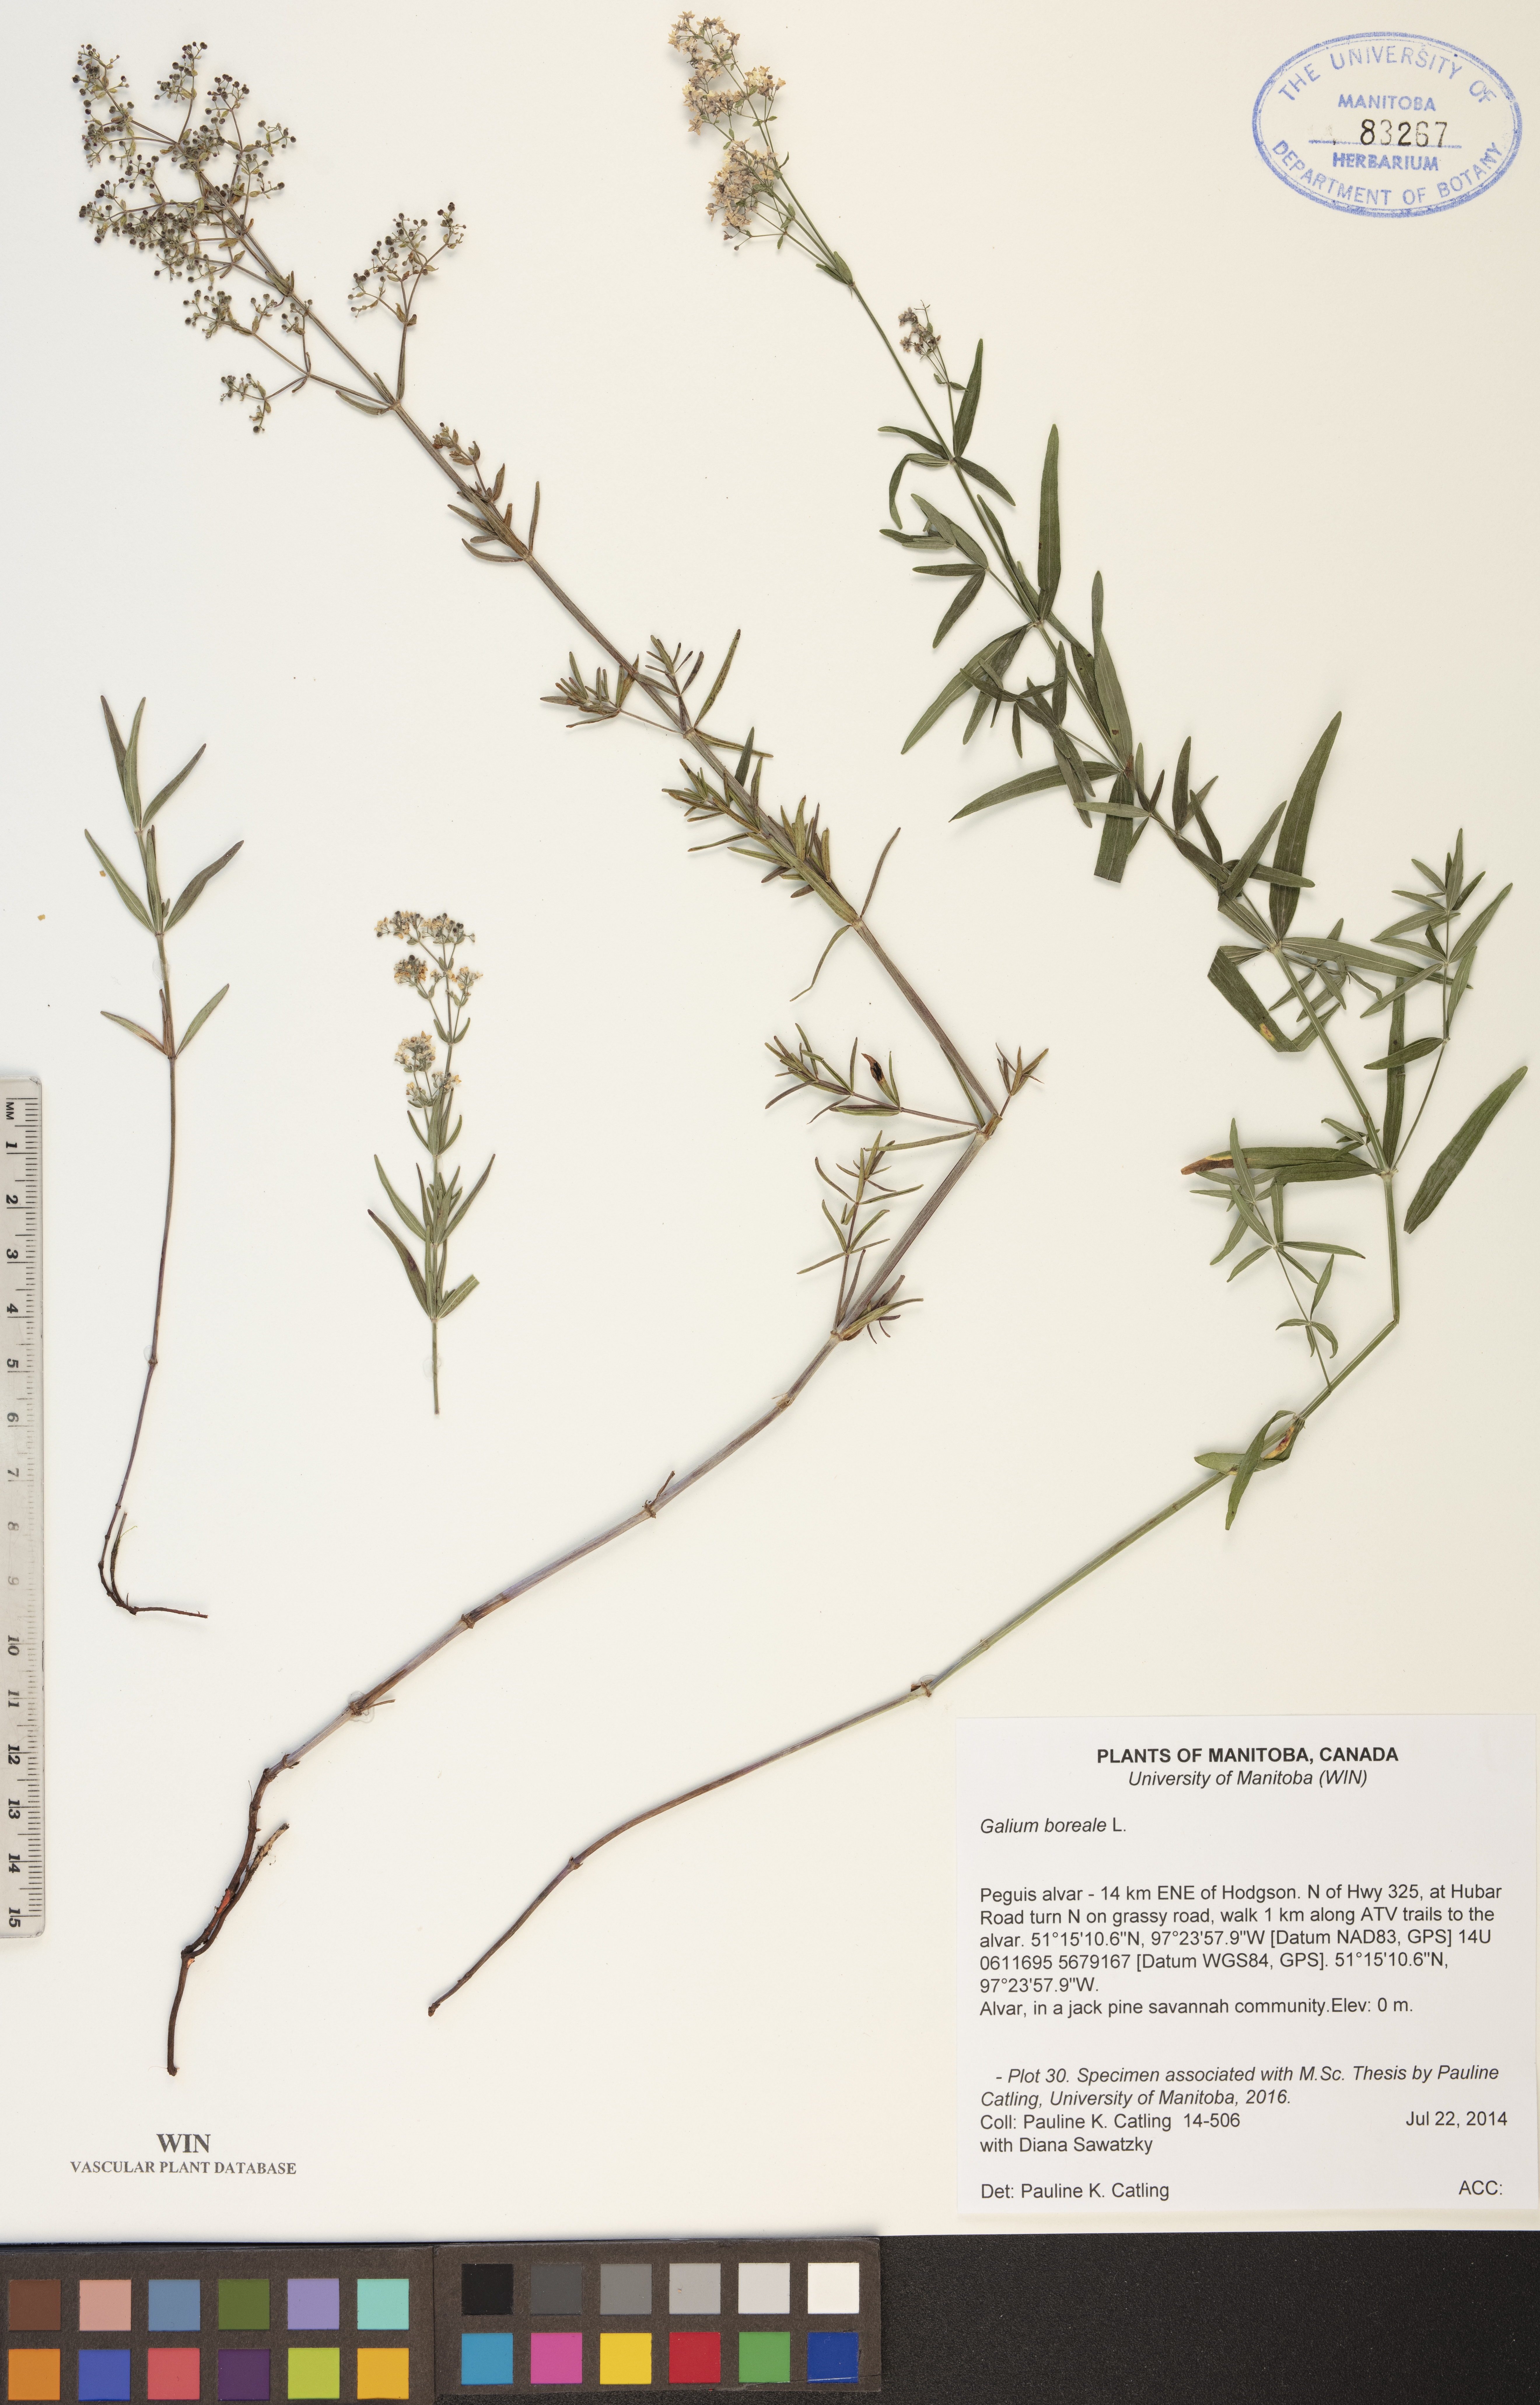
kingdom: Plantae
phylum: Tracheophyta
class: Magnoliopsida
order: Gentianales
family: Rubiaceae
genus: Galium
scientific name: Galium boreale
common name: Northern bedstraw
